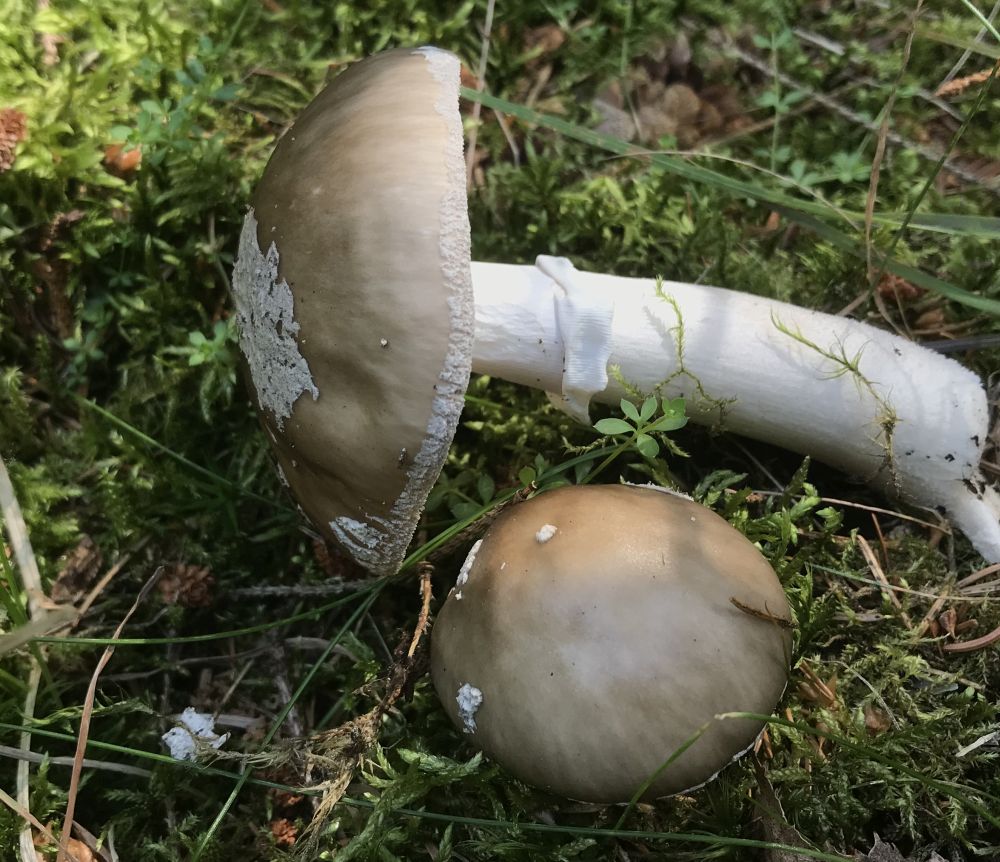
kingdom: Fungi
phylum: Basidiomycota
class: Agaricomycetes
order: Agaricales
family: Amanitaceae
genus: Amanita
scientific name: Amanita
